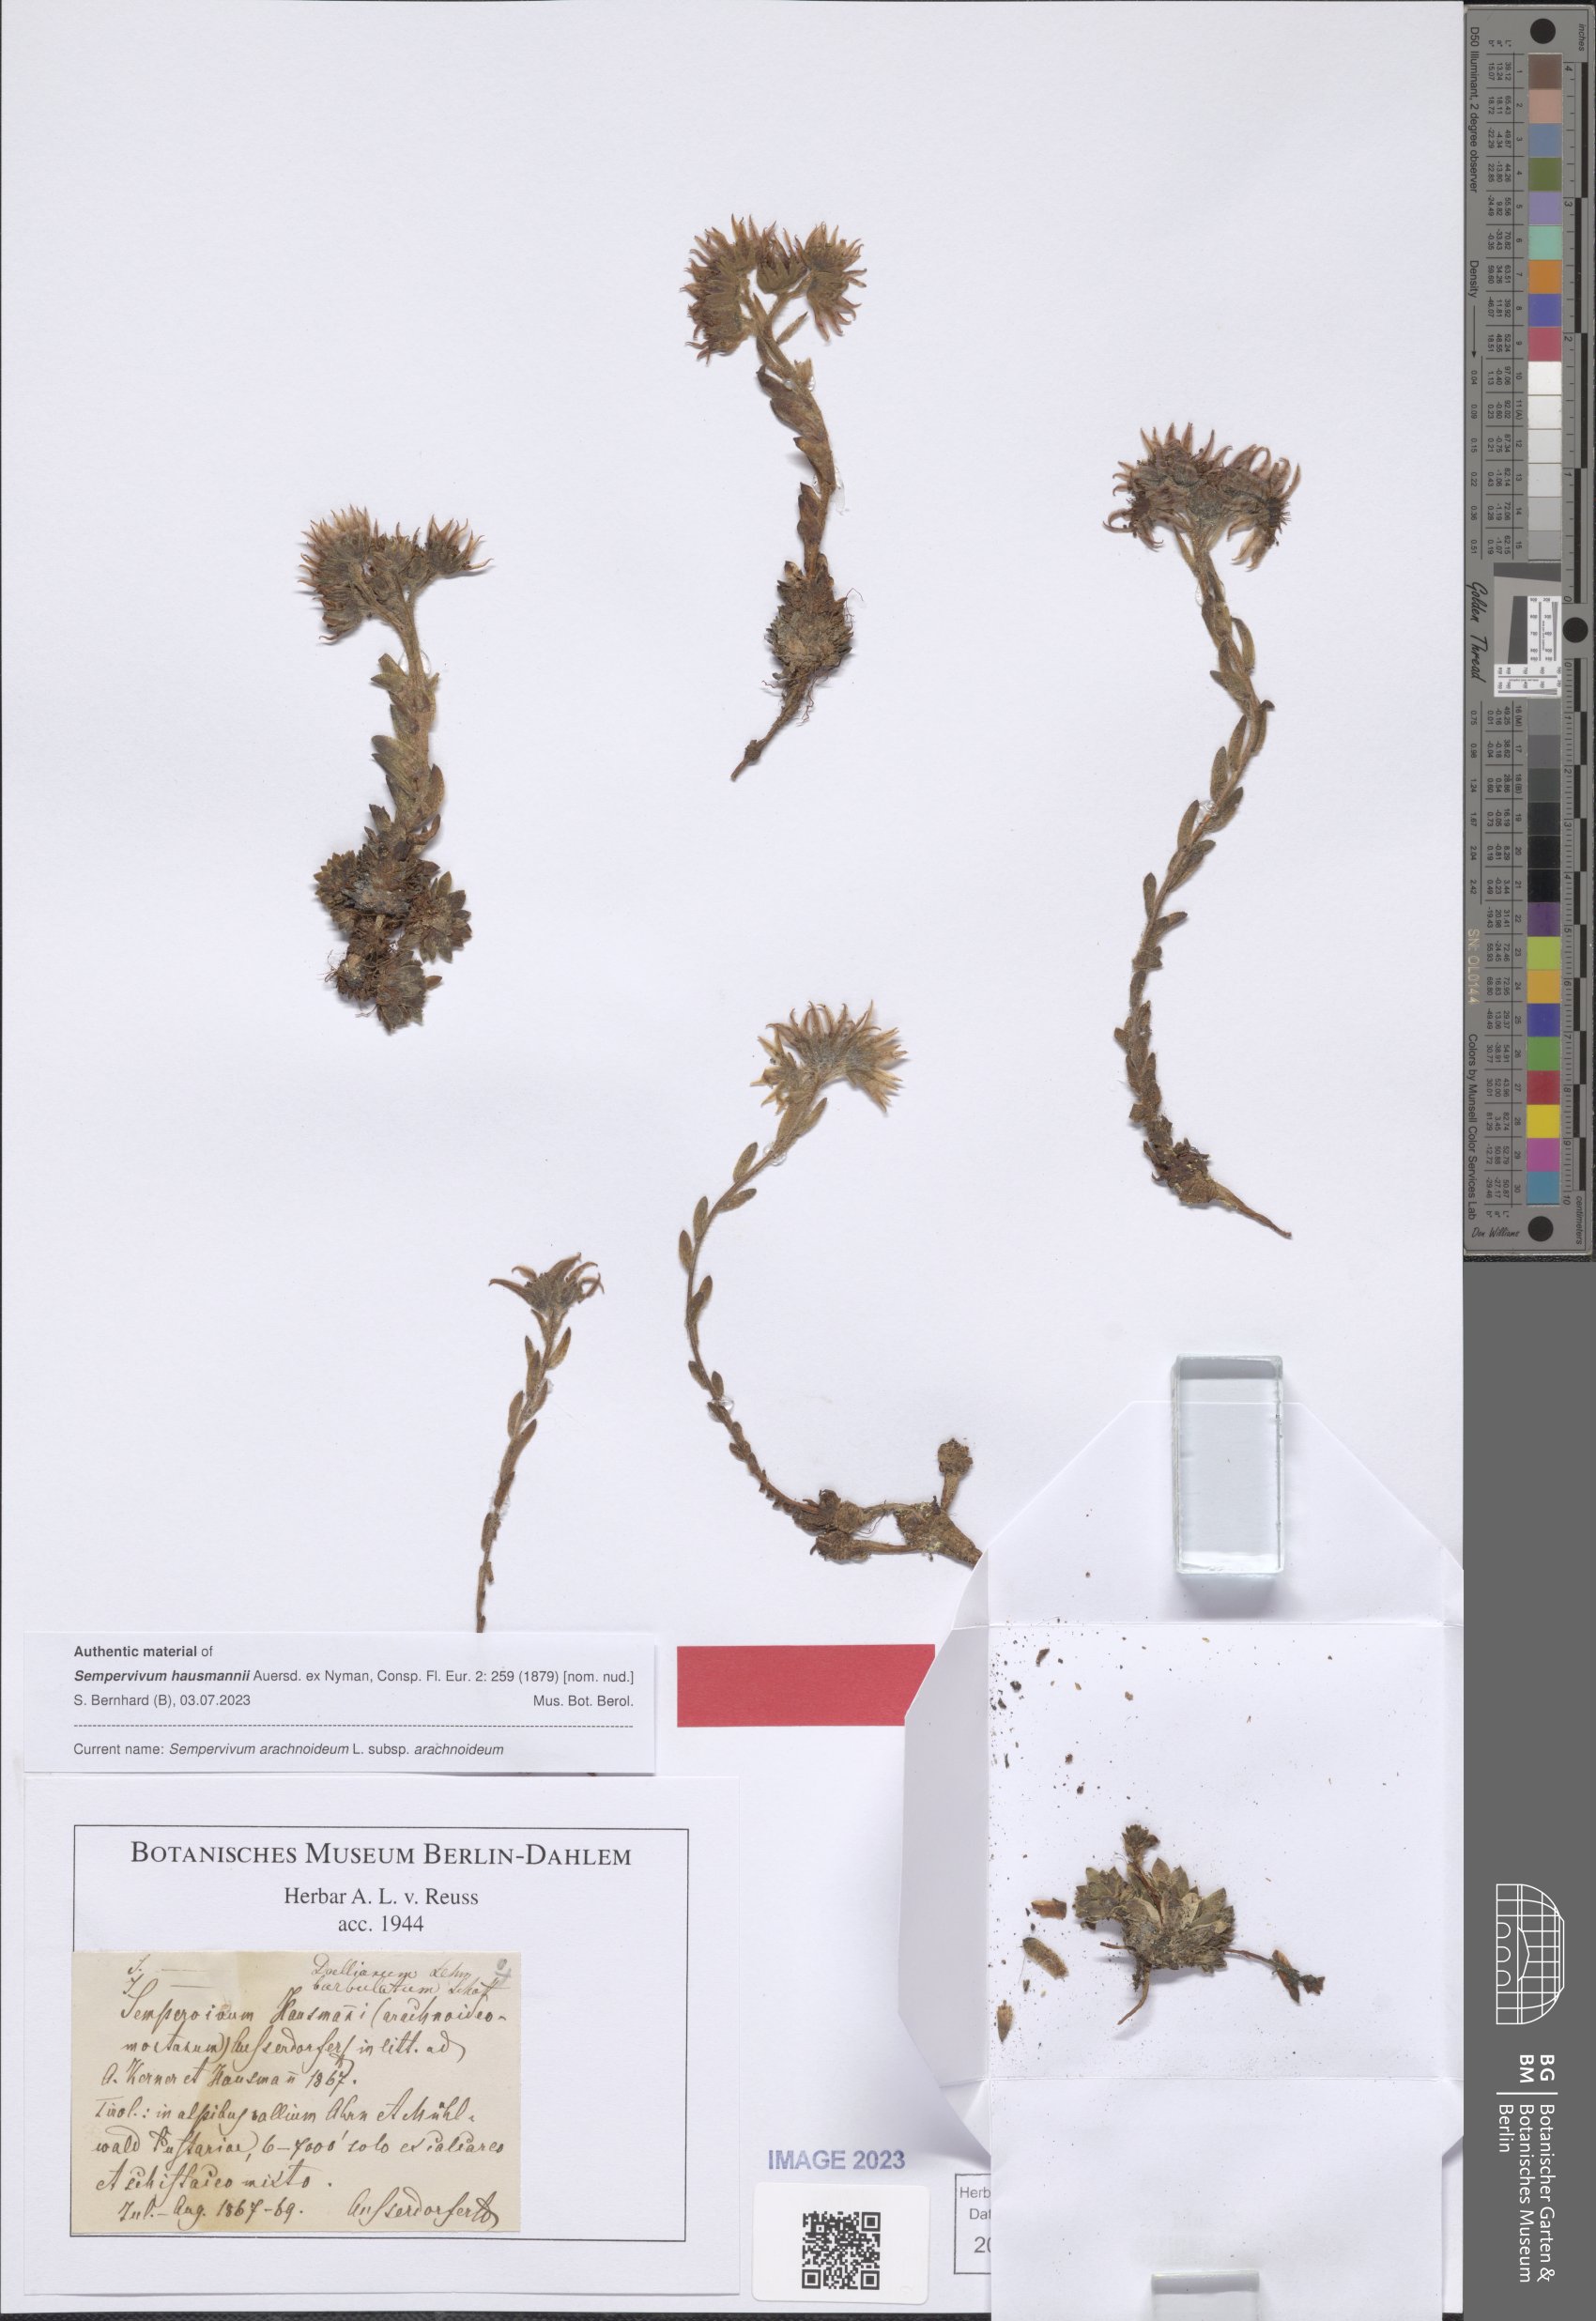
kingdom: Plantae
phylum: Tracheophyta
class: Magnoliopsida
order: Saxifragales
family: Crassulaceae
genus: Sempervivum
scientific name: Sempervivum arachnoideum
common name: Cobweb house-leek
